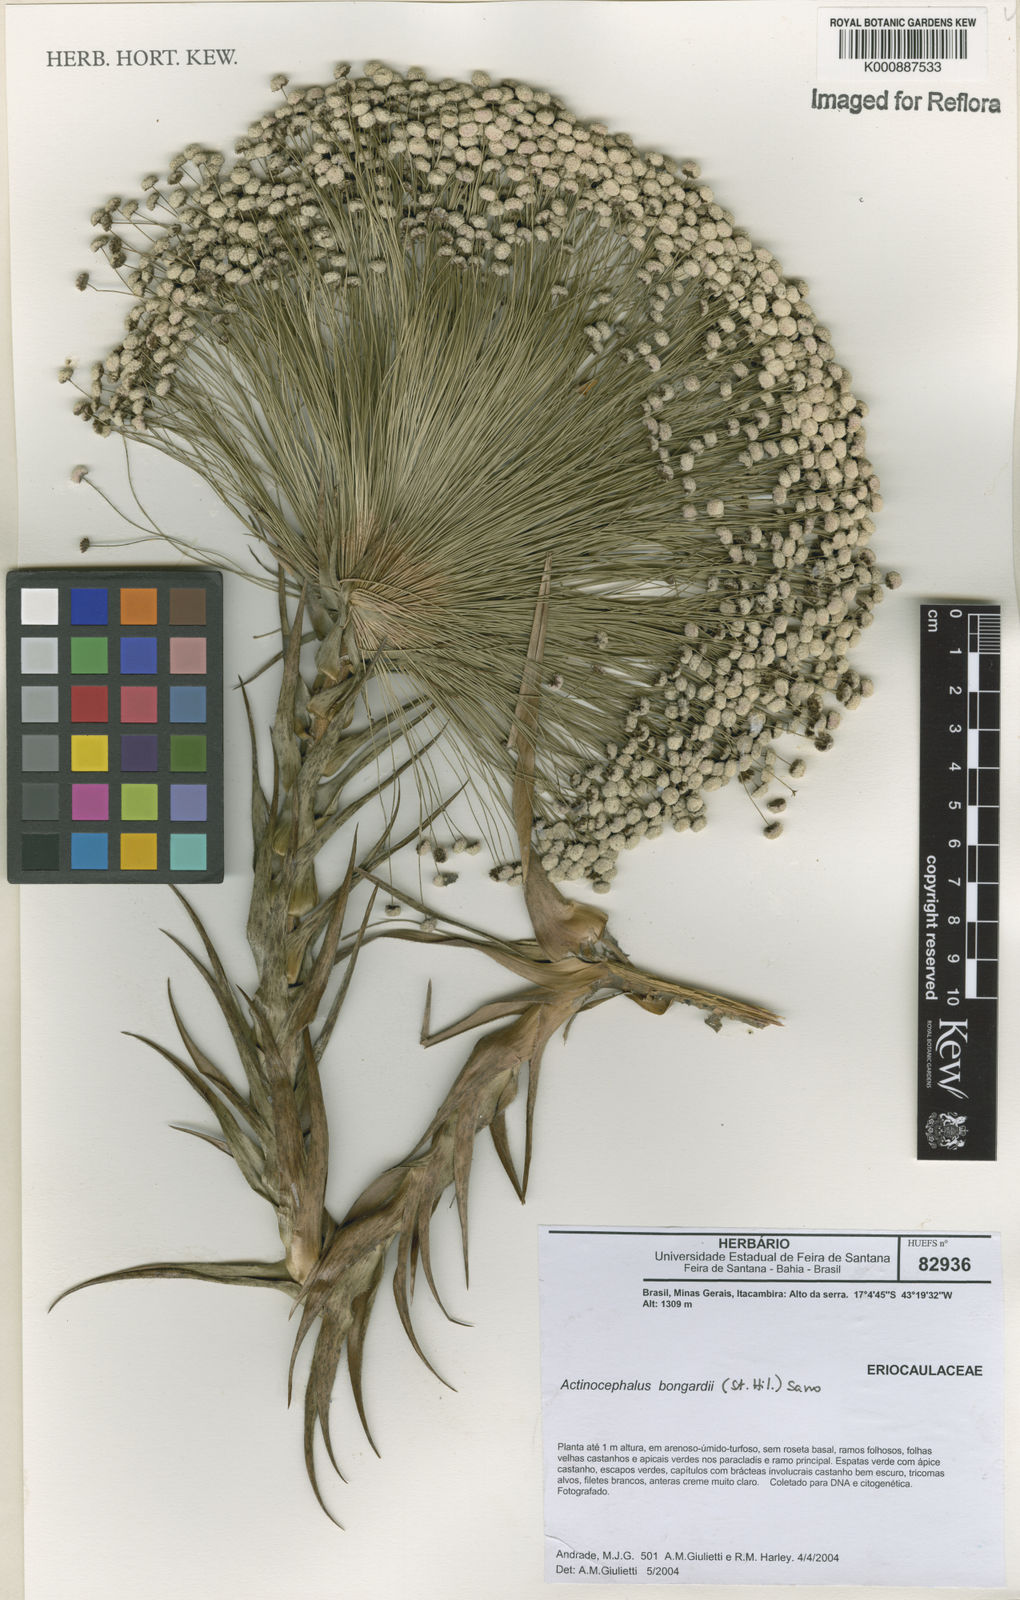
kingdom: Plantae
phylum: Tracheophyta
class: Liliopsida
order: Poales
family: Eriocaulaceae
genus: Paepalanthus
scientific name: Paepalanthus hilairei
